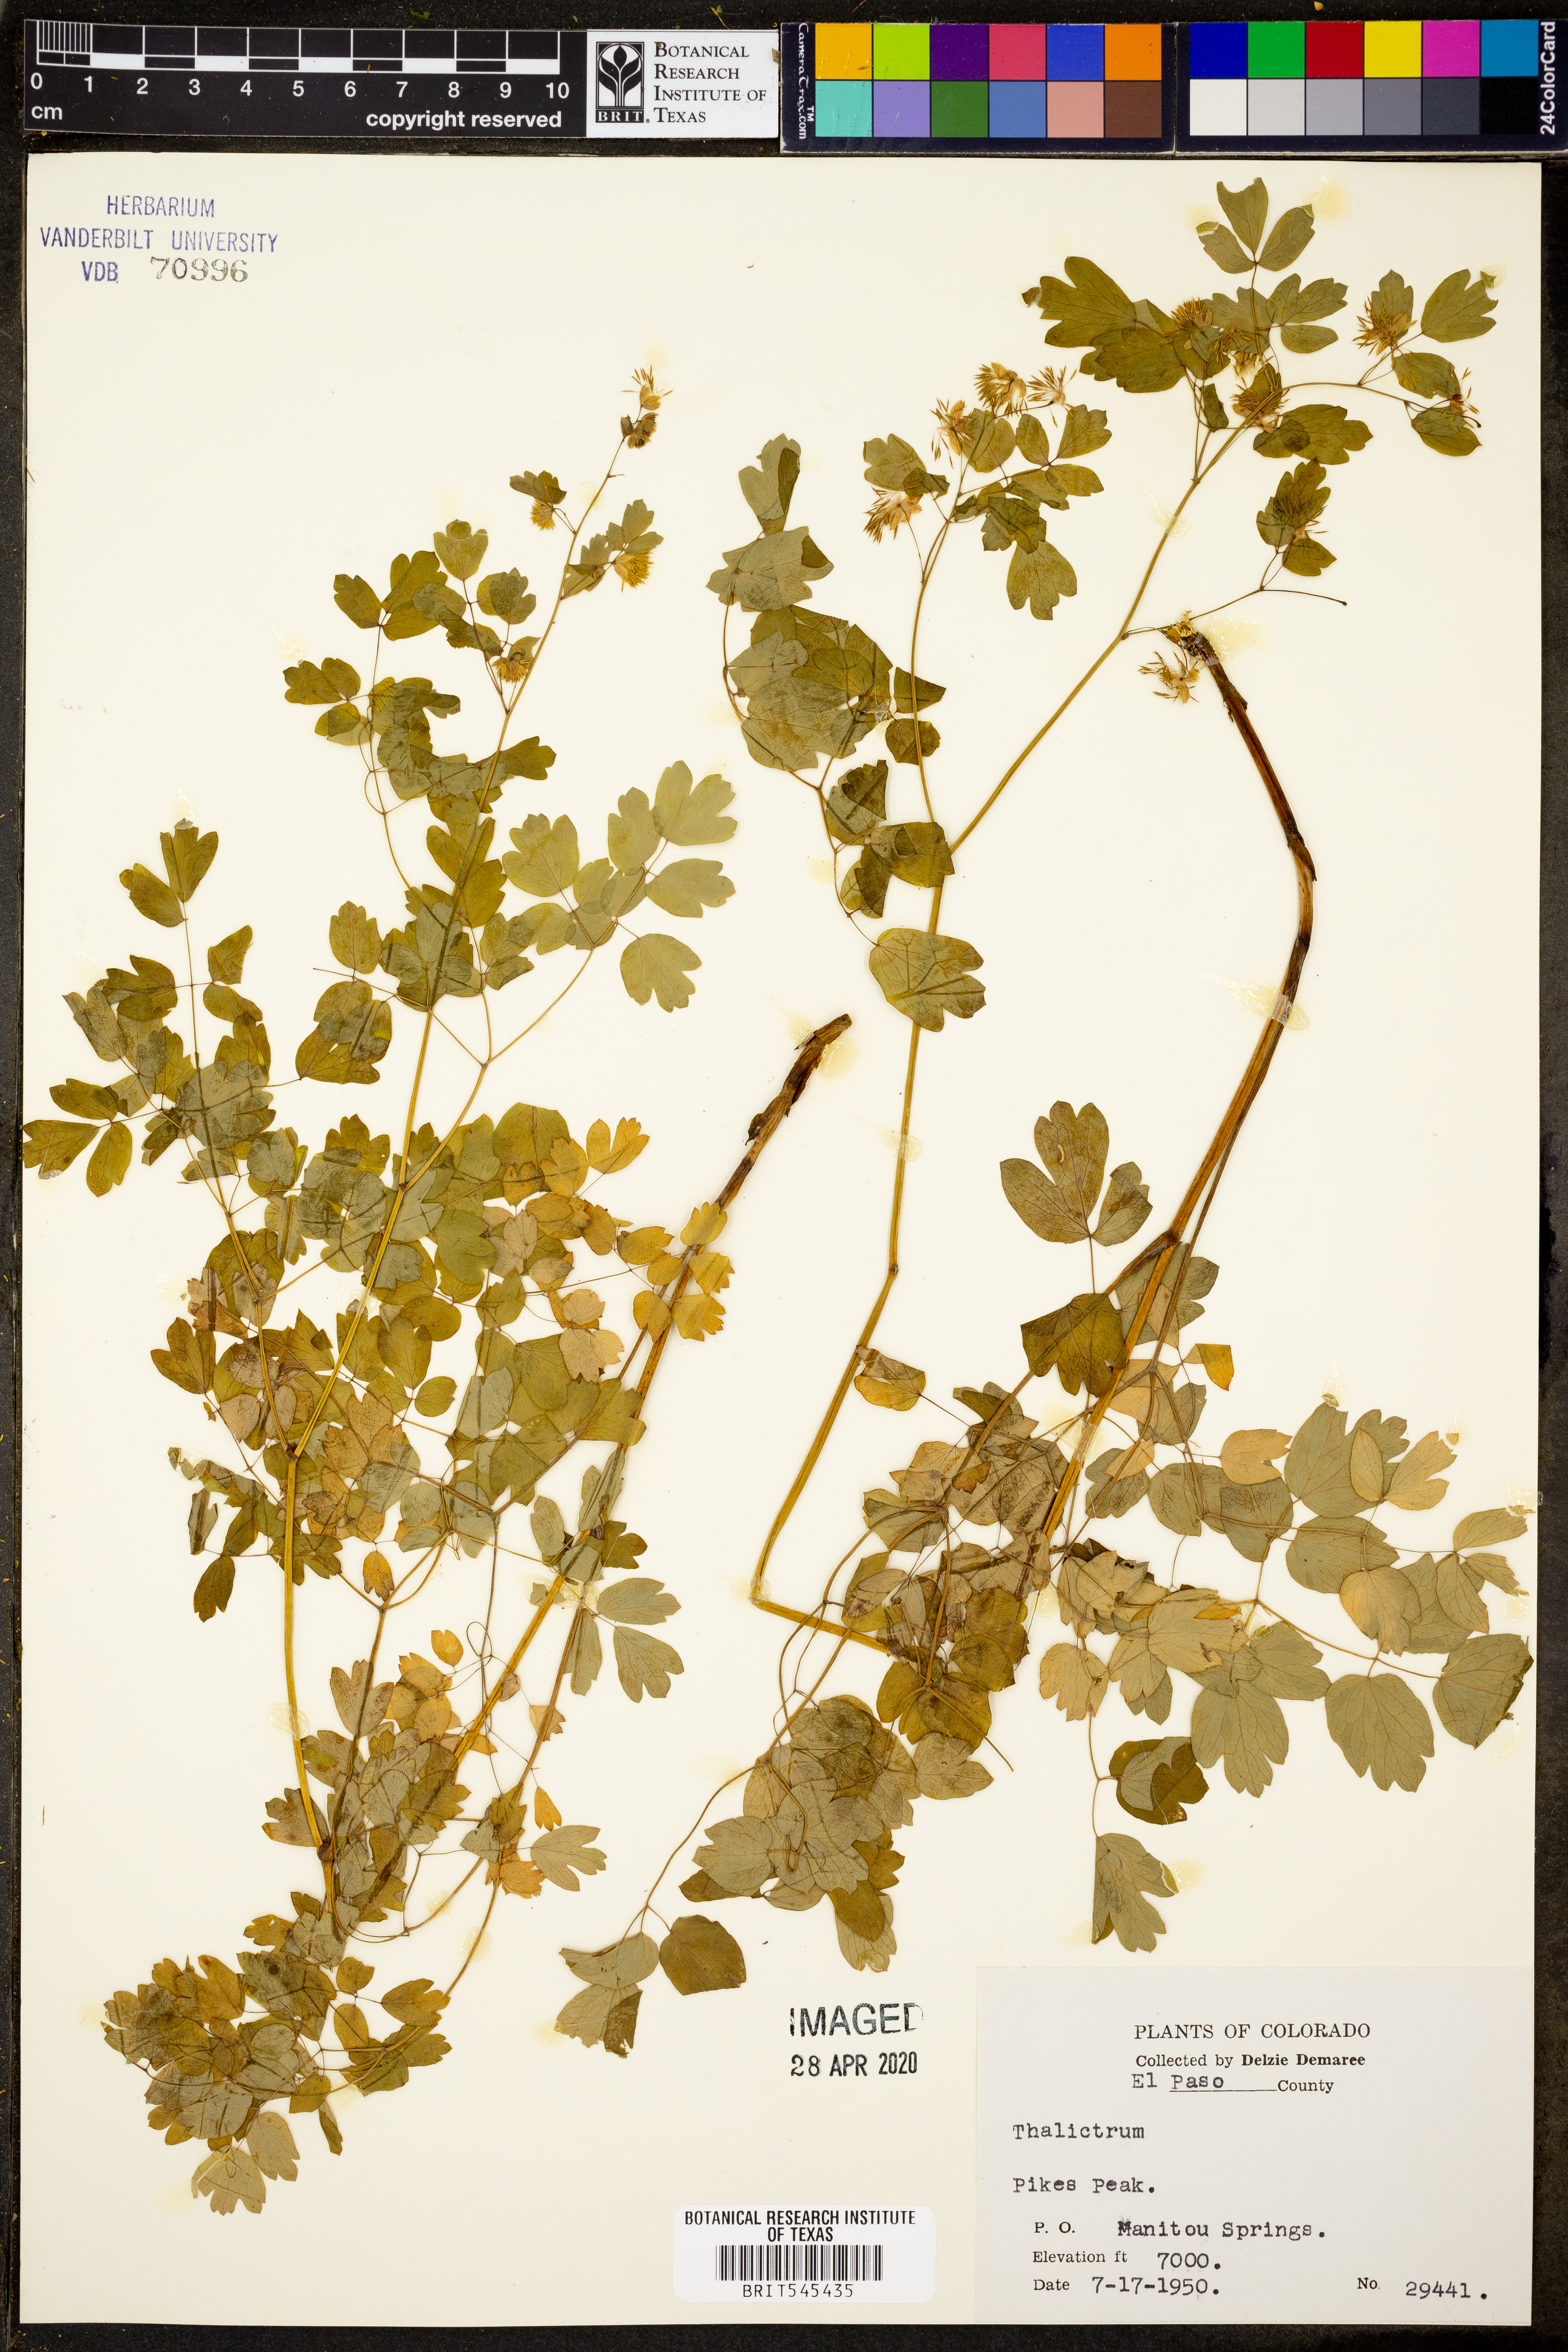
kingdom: Plantae
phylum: Tracheophyta
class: Magnoliopsida
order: Ranunculales
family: Ranunculaceae
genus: Thalictrum
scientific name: Thalictrum
